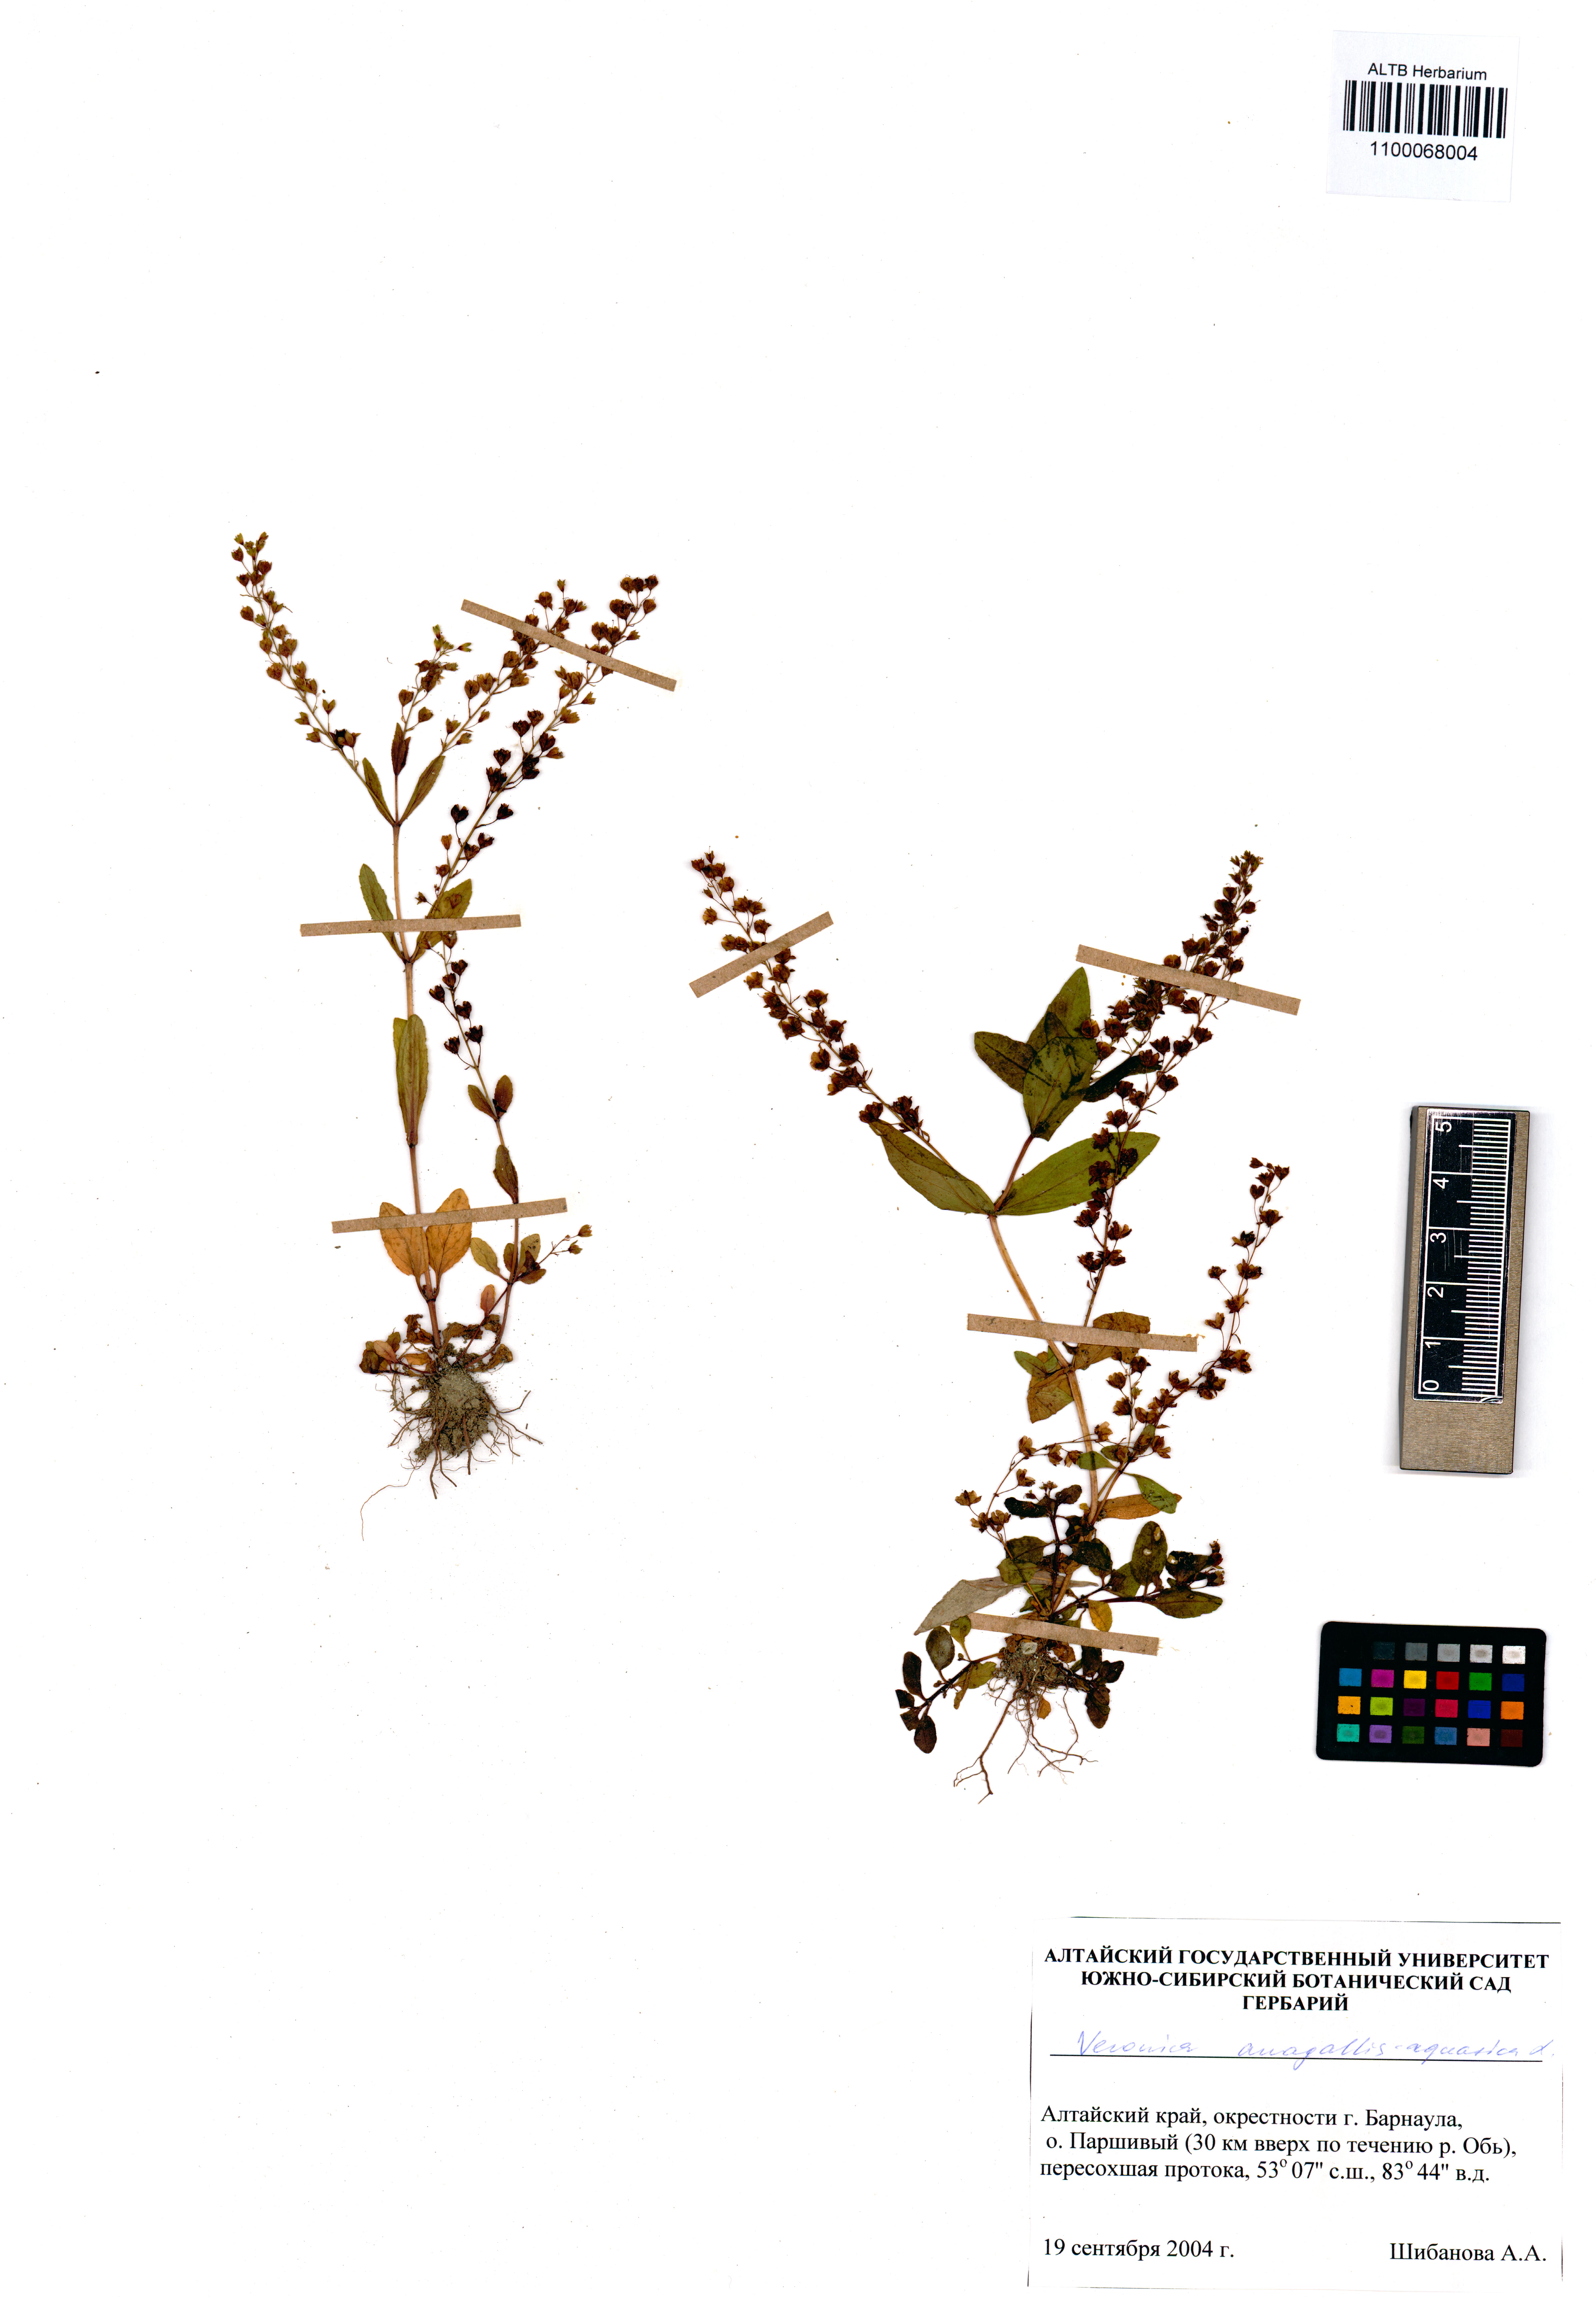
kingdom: Plantae
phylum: Tracheophyta
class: Magnoliopsida
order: Lamiales
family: Plantaginaceae
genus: Veronica
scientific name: Veronica anagallis-aquatica
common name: Water speedwell
